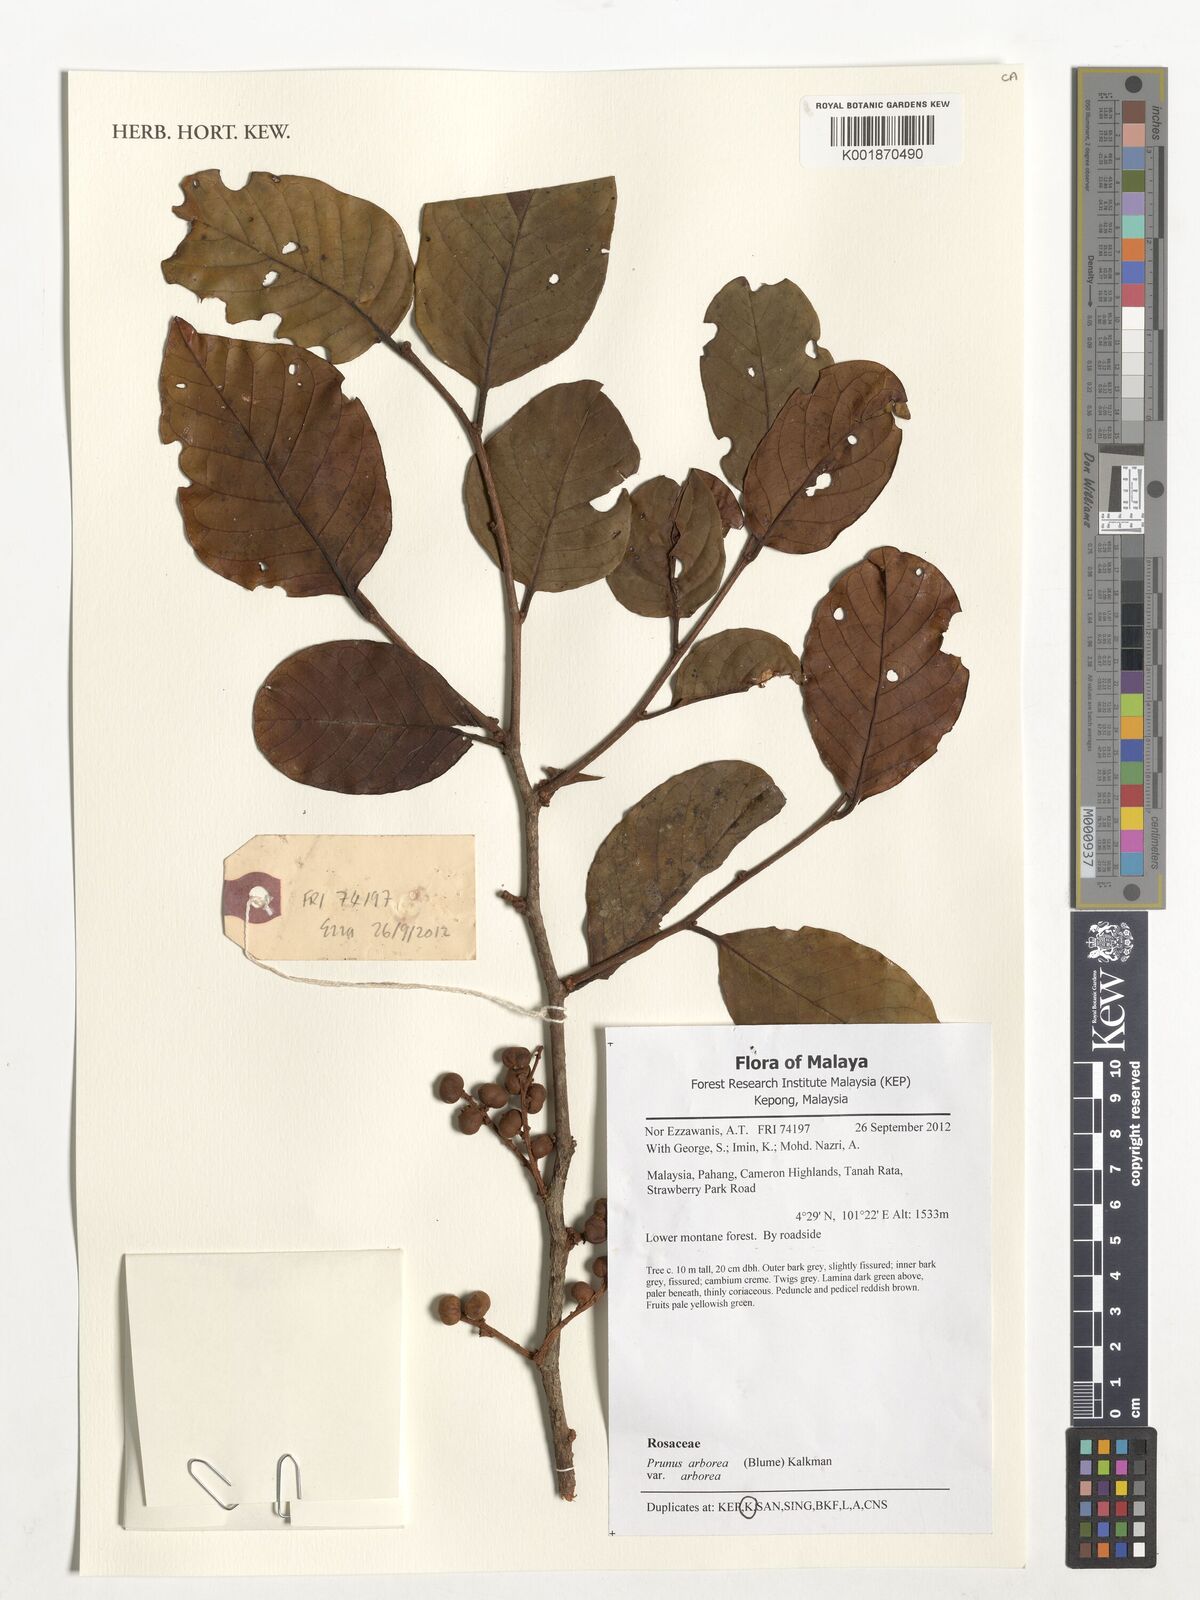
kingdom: Plantae
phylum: Tracheophyta
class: Magnoliopsida
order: Rosales
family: Rosaceae
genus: Prunus
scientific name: Prunus arborea
